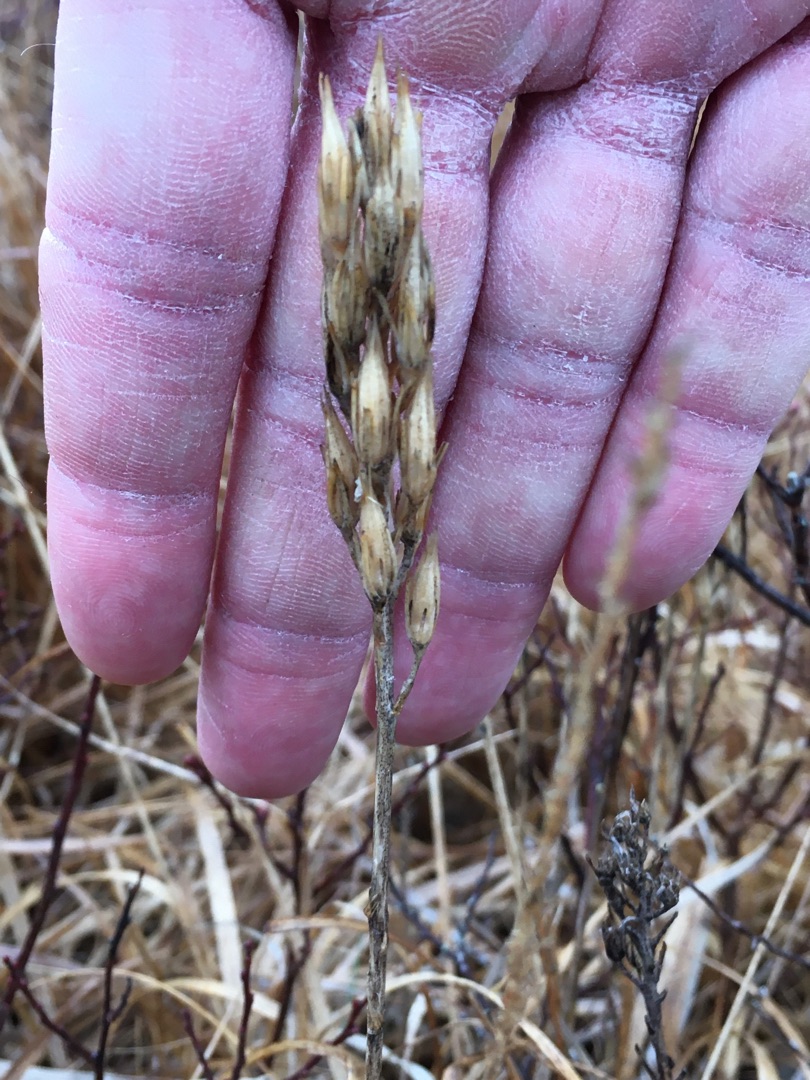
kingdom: Plantae
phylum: Tracheophyta
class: Liliopsida
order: Dioscoreales
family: Nartheciaceae
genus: Narthecium
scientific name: Narthecium ossifragum
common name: Benbræk
